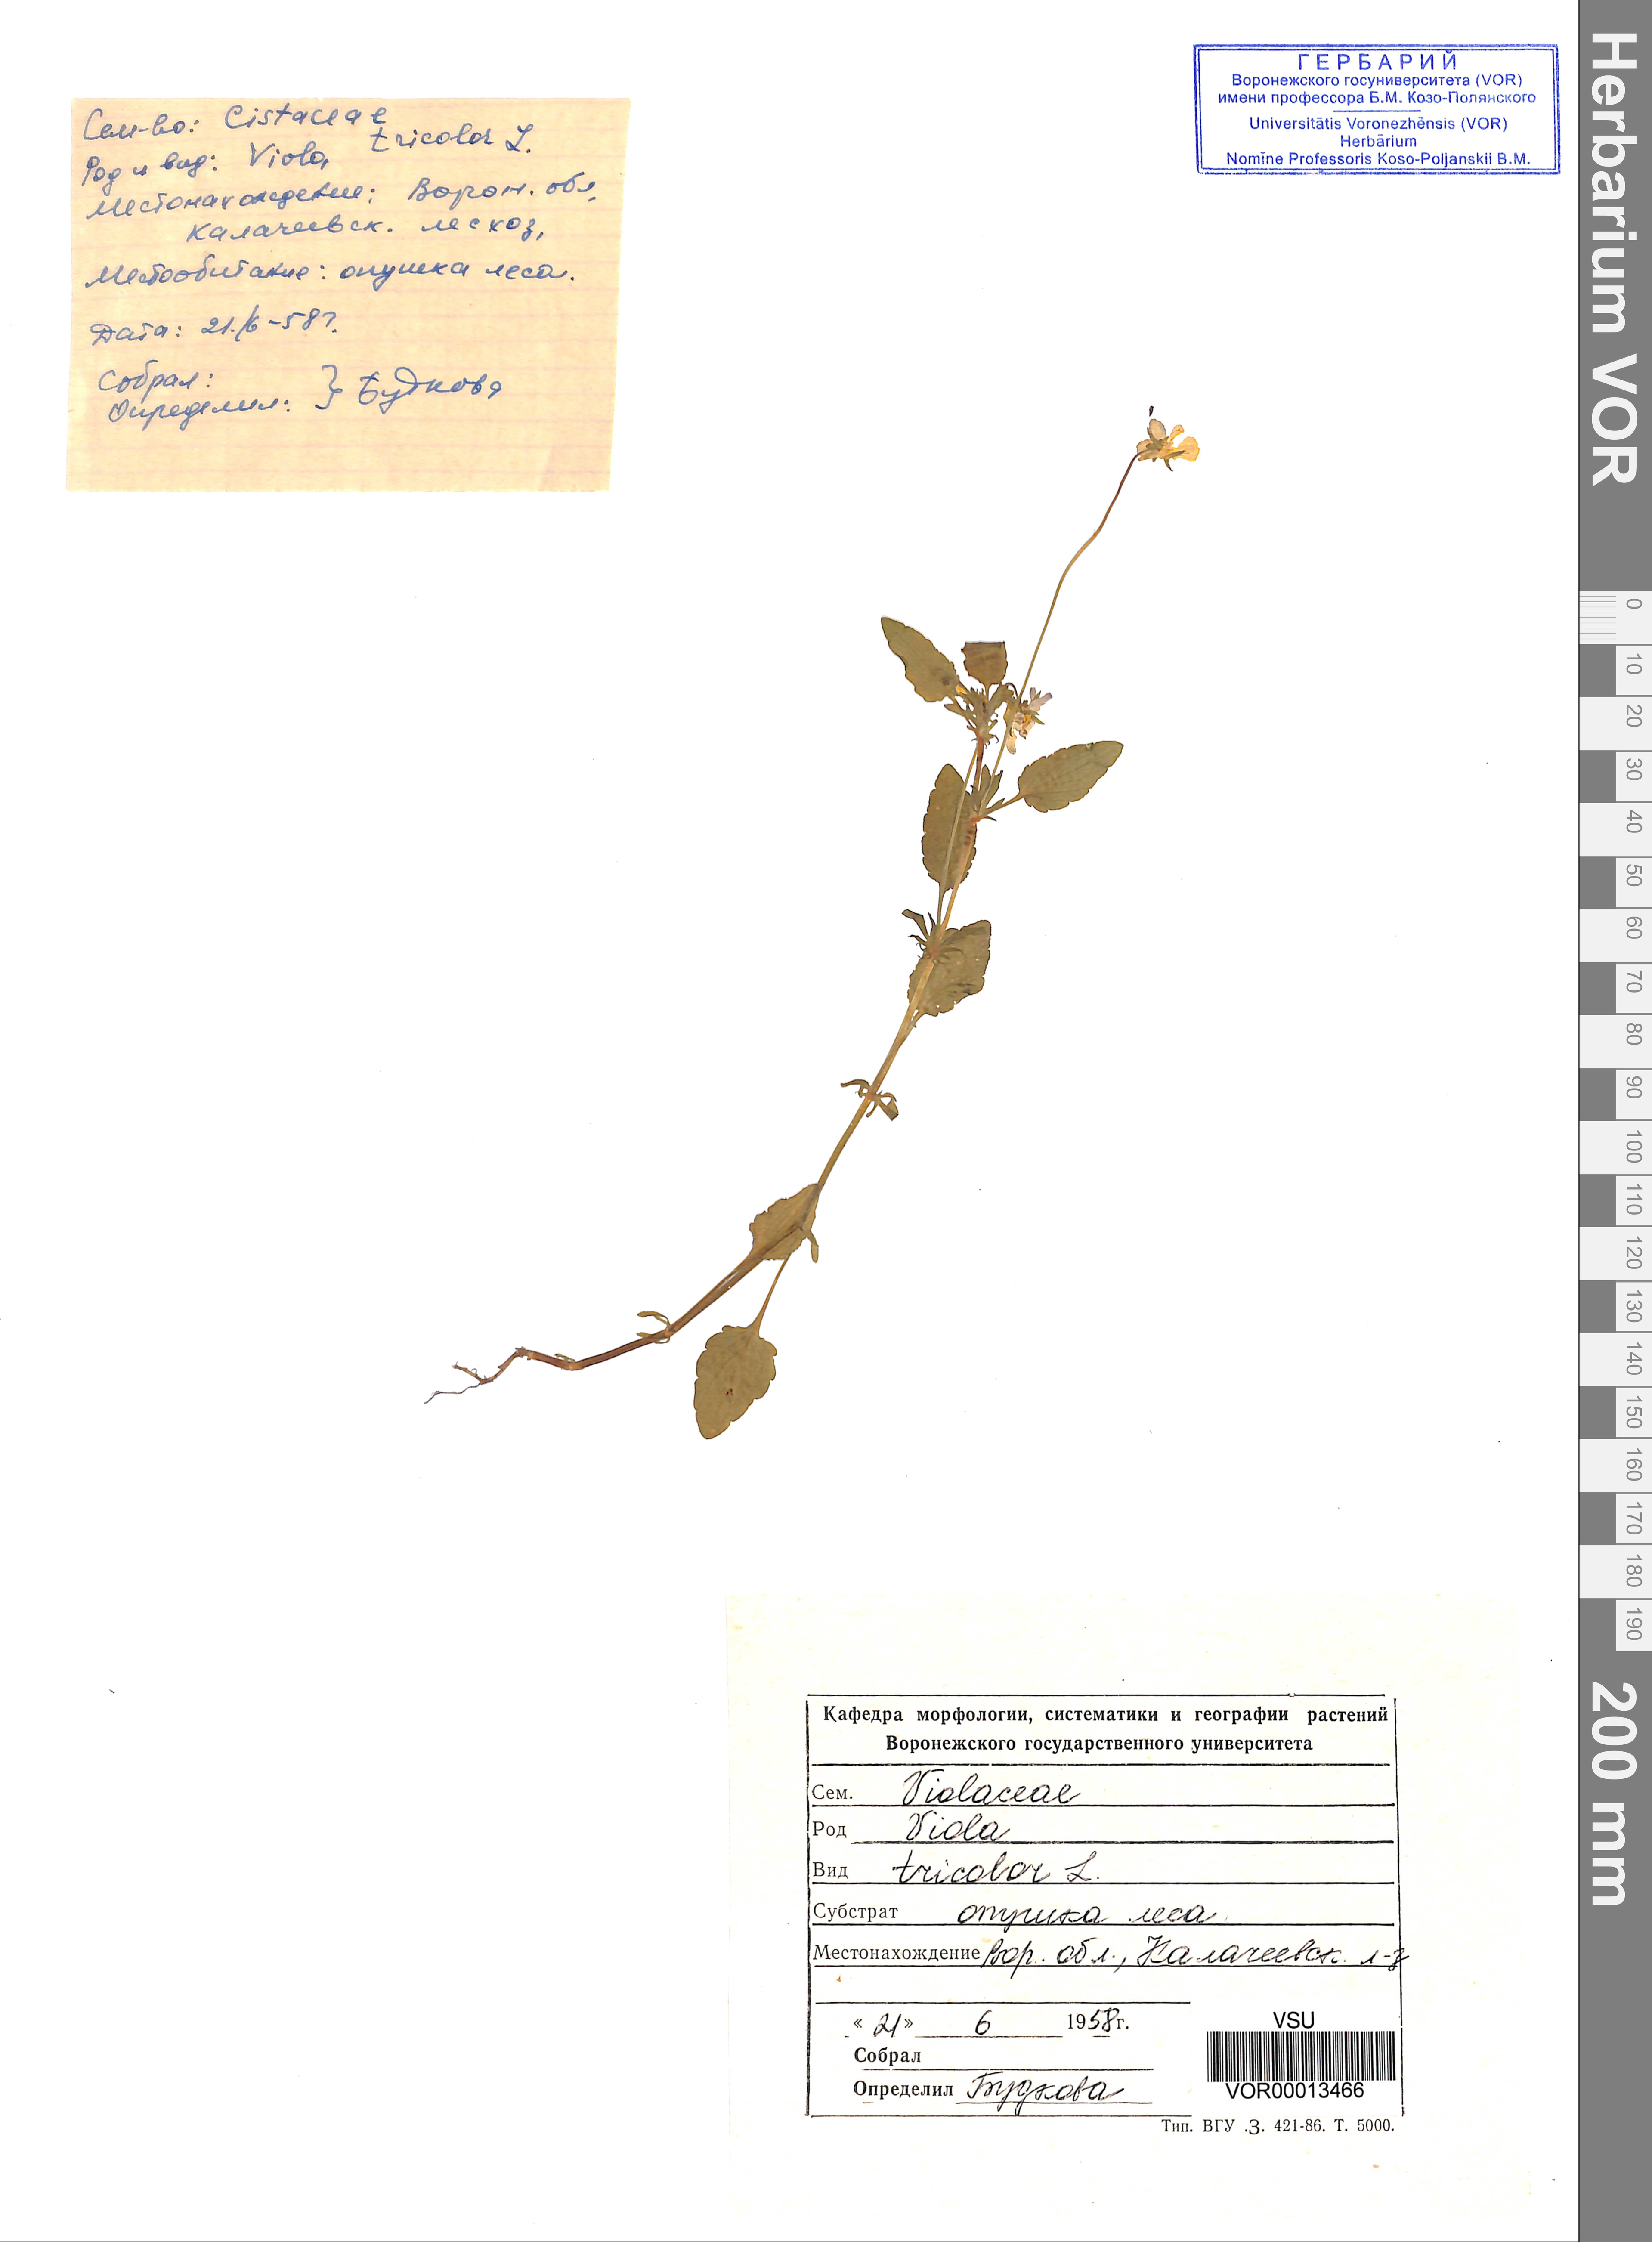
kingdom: Plantae
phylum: Tracheophyta
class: Magnoliopsida
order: Malpighiales
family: Violaceae
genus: Viola
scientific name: Viola tricolor
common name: Pansy
